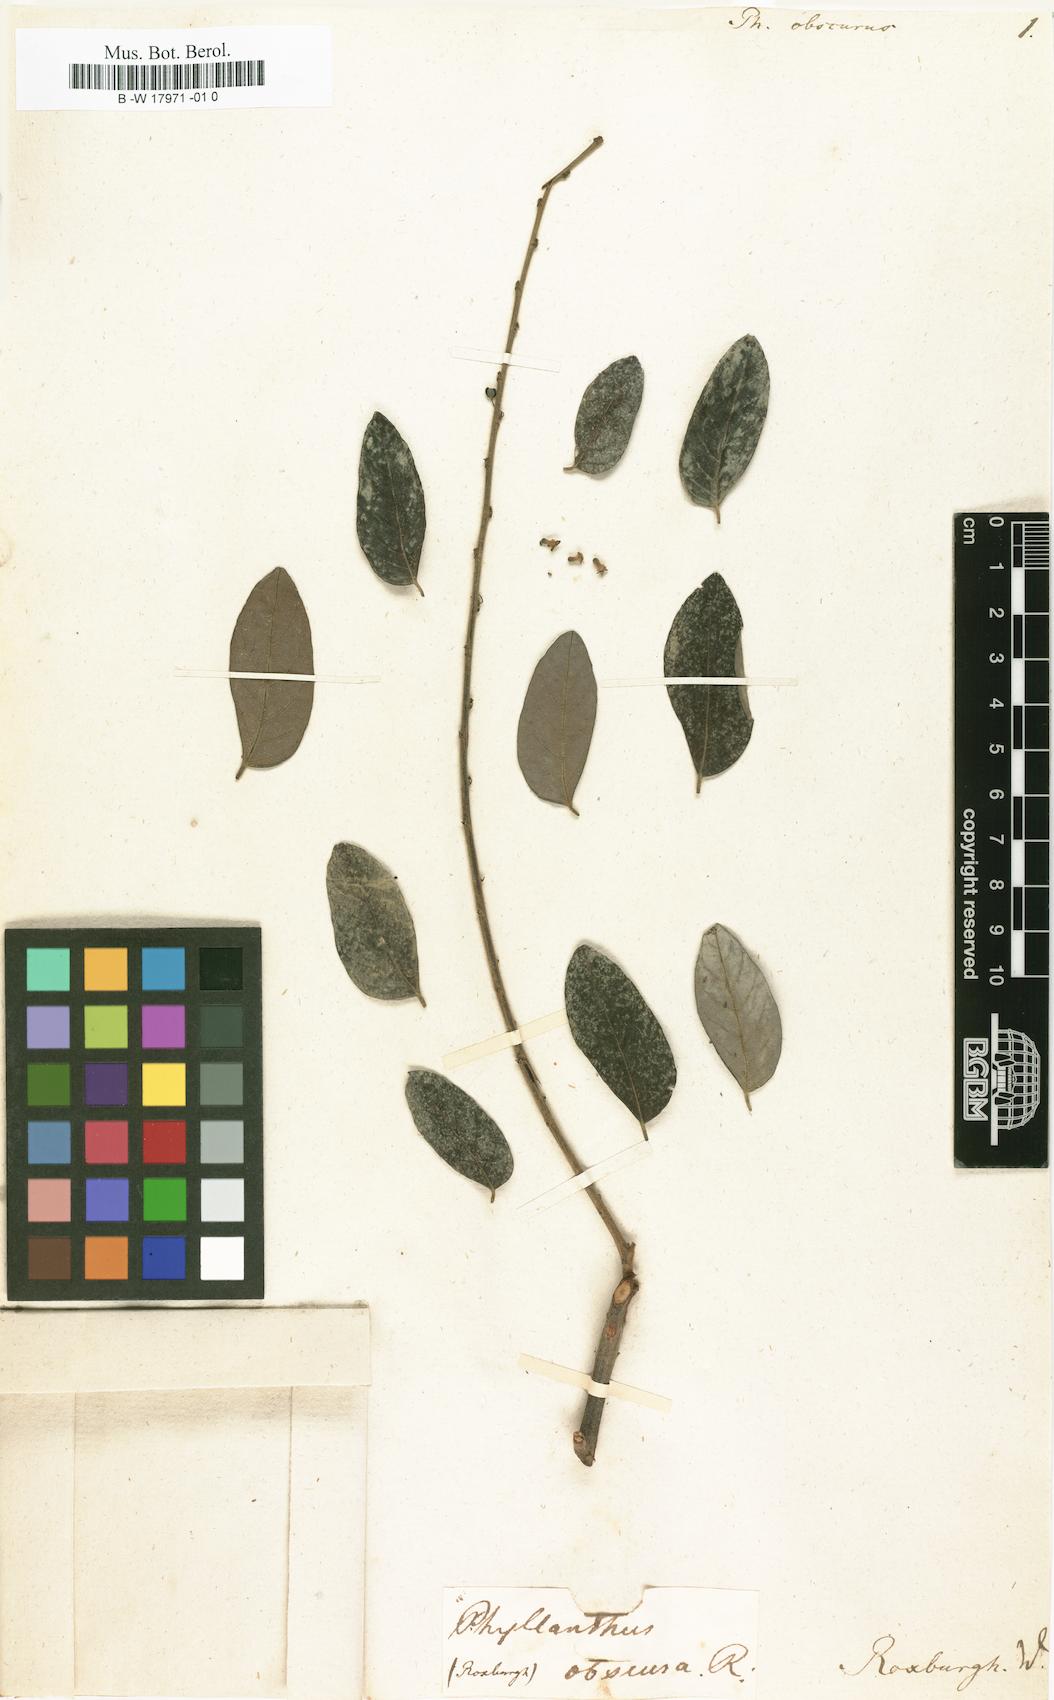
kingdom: Plantae
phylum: Tracheophyta
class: Magnoliopsida
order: Malpighiales
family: Phyllanthaceae
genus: Glochidion
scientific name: Glochidion obscurum
